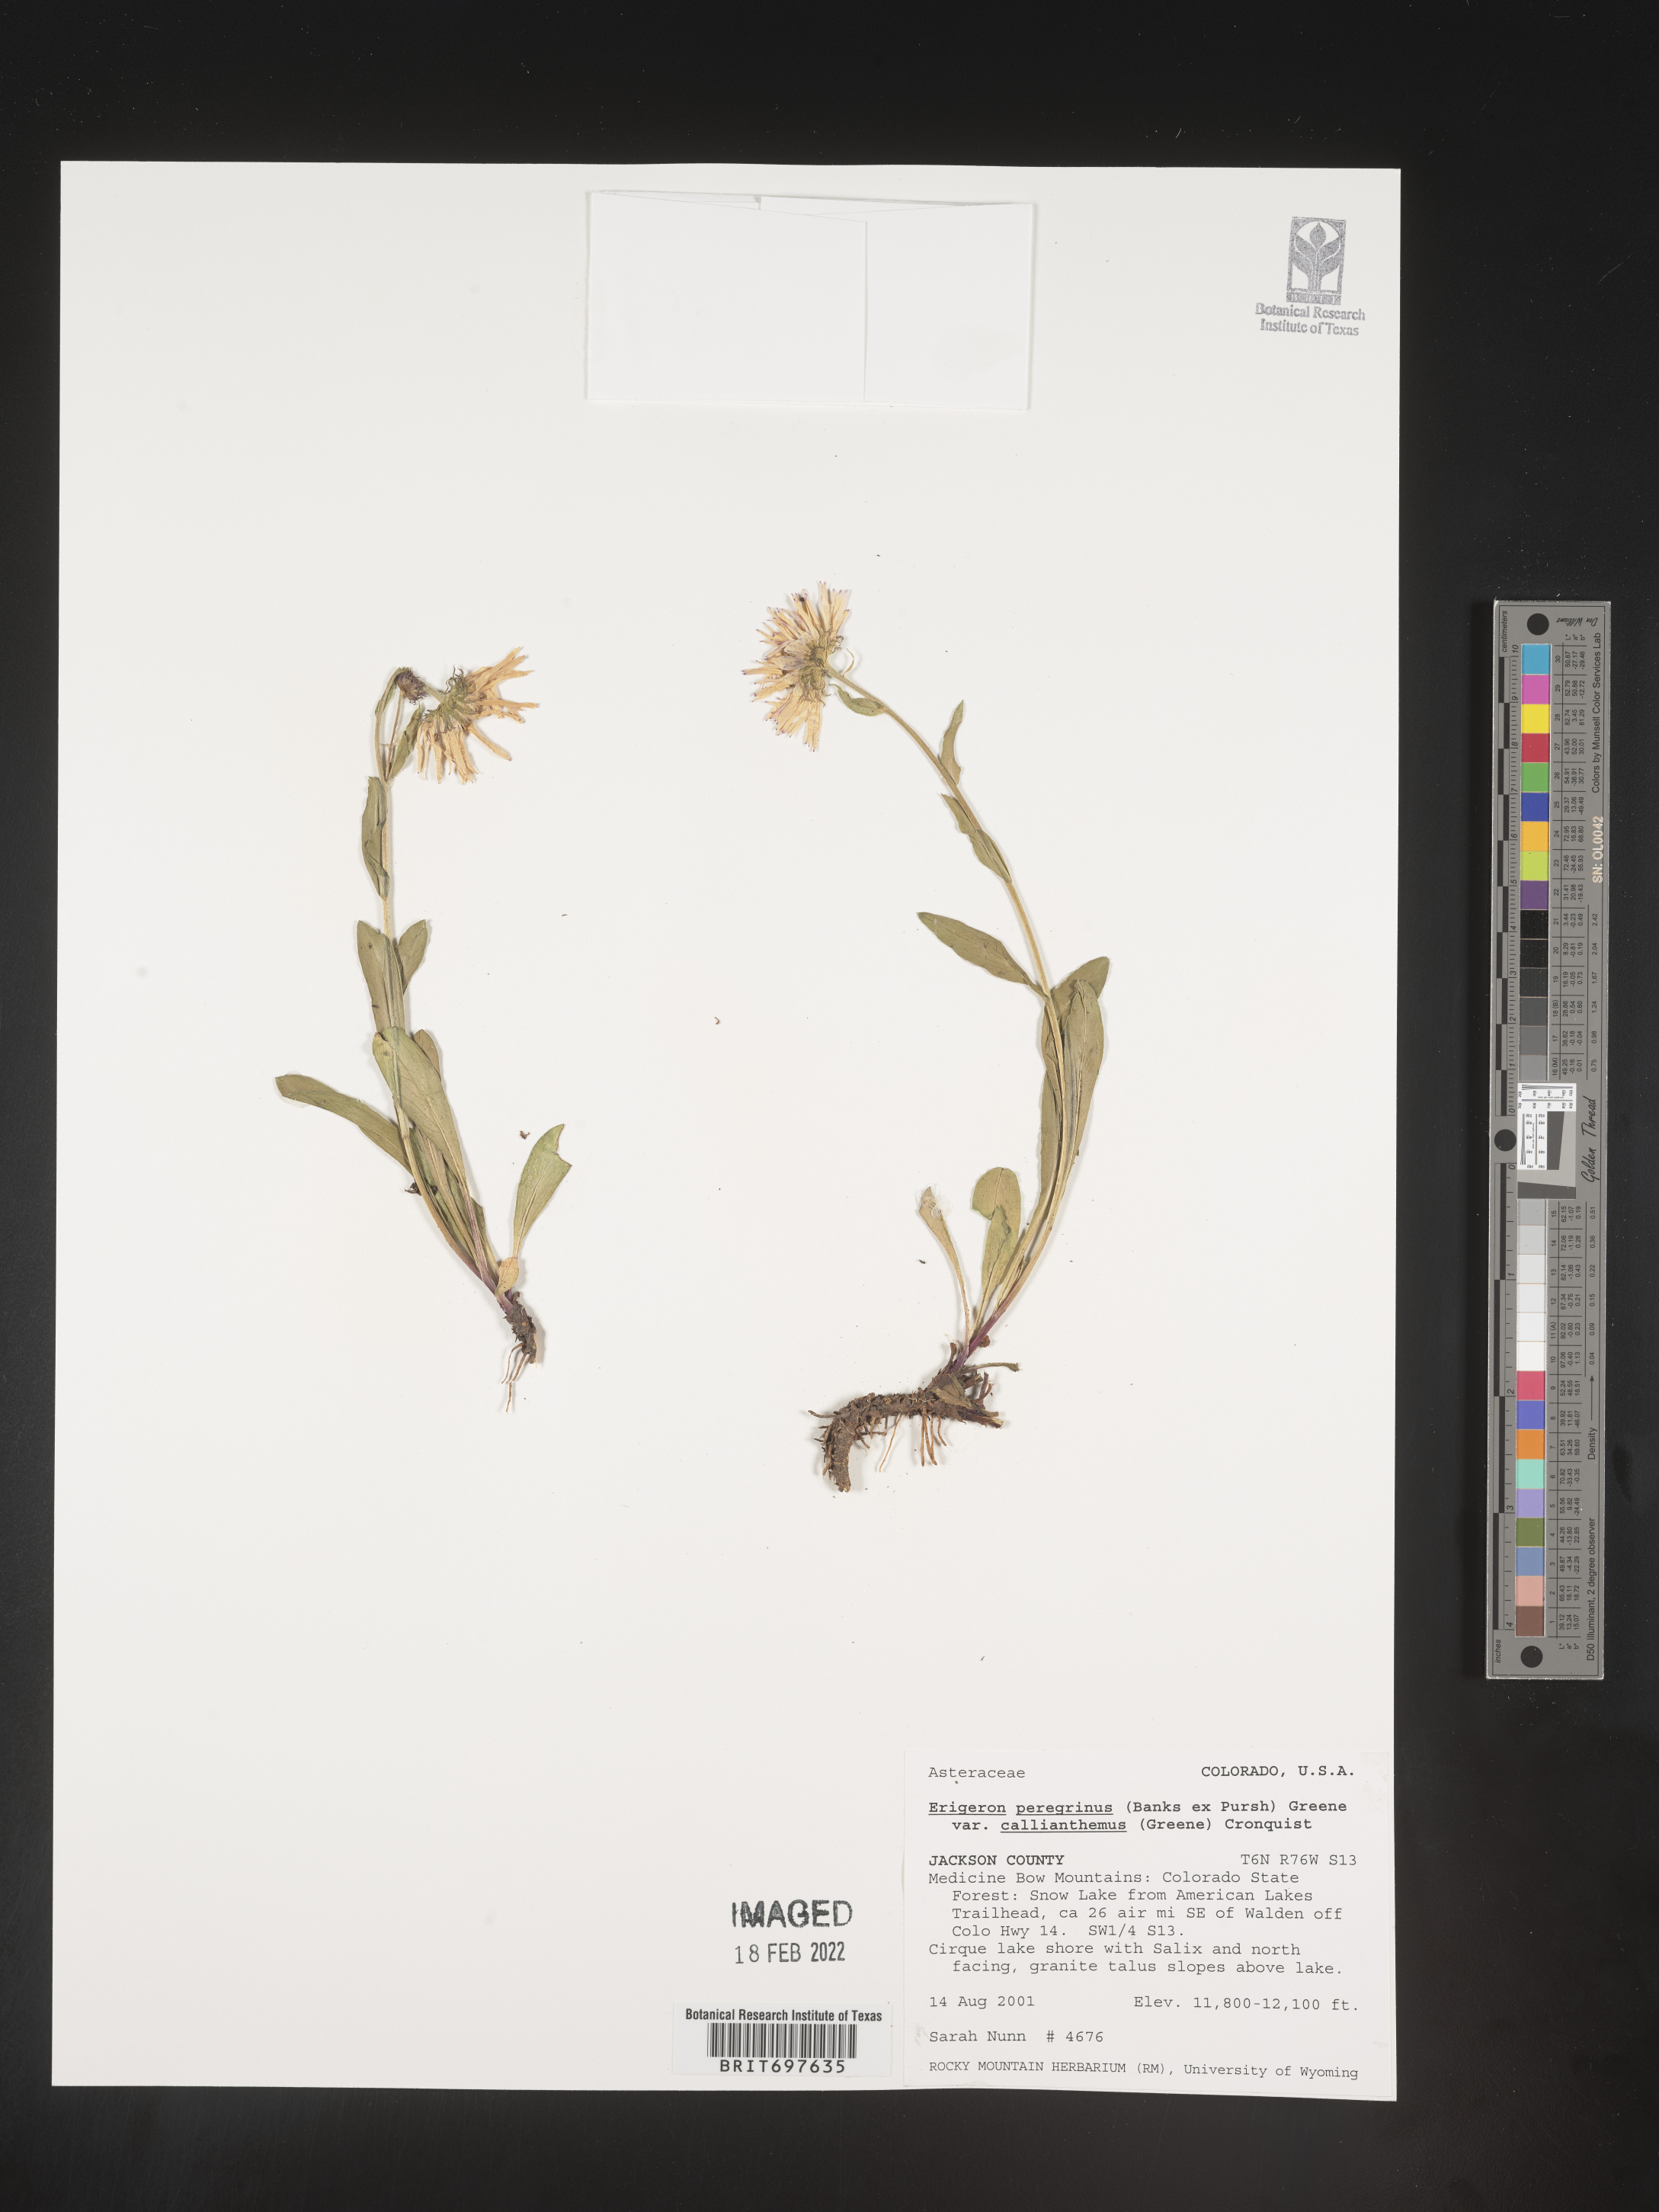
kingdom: Plantae
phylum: Tracheophyta
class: Magnoliopsida
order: Asterales
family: Asteraceae
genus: Erigeron
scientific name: Erigeron peregrinus
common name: Peregrine fleabane
